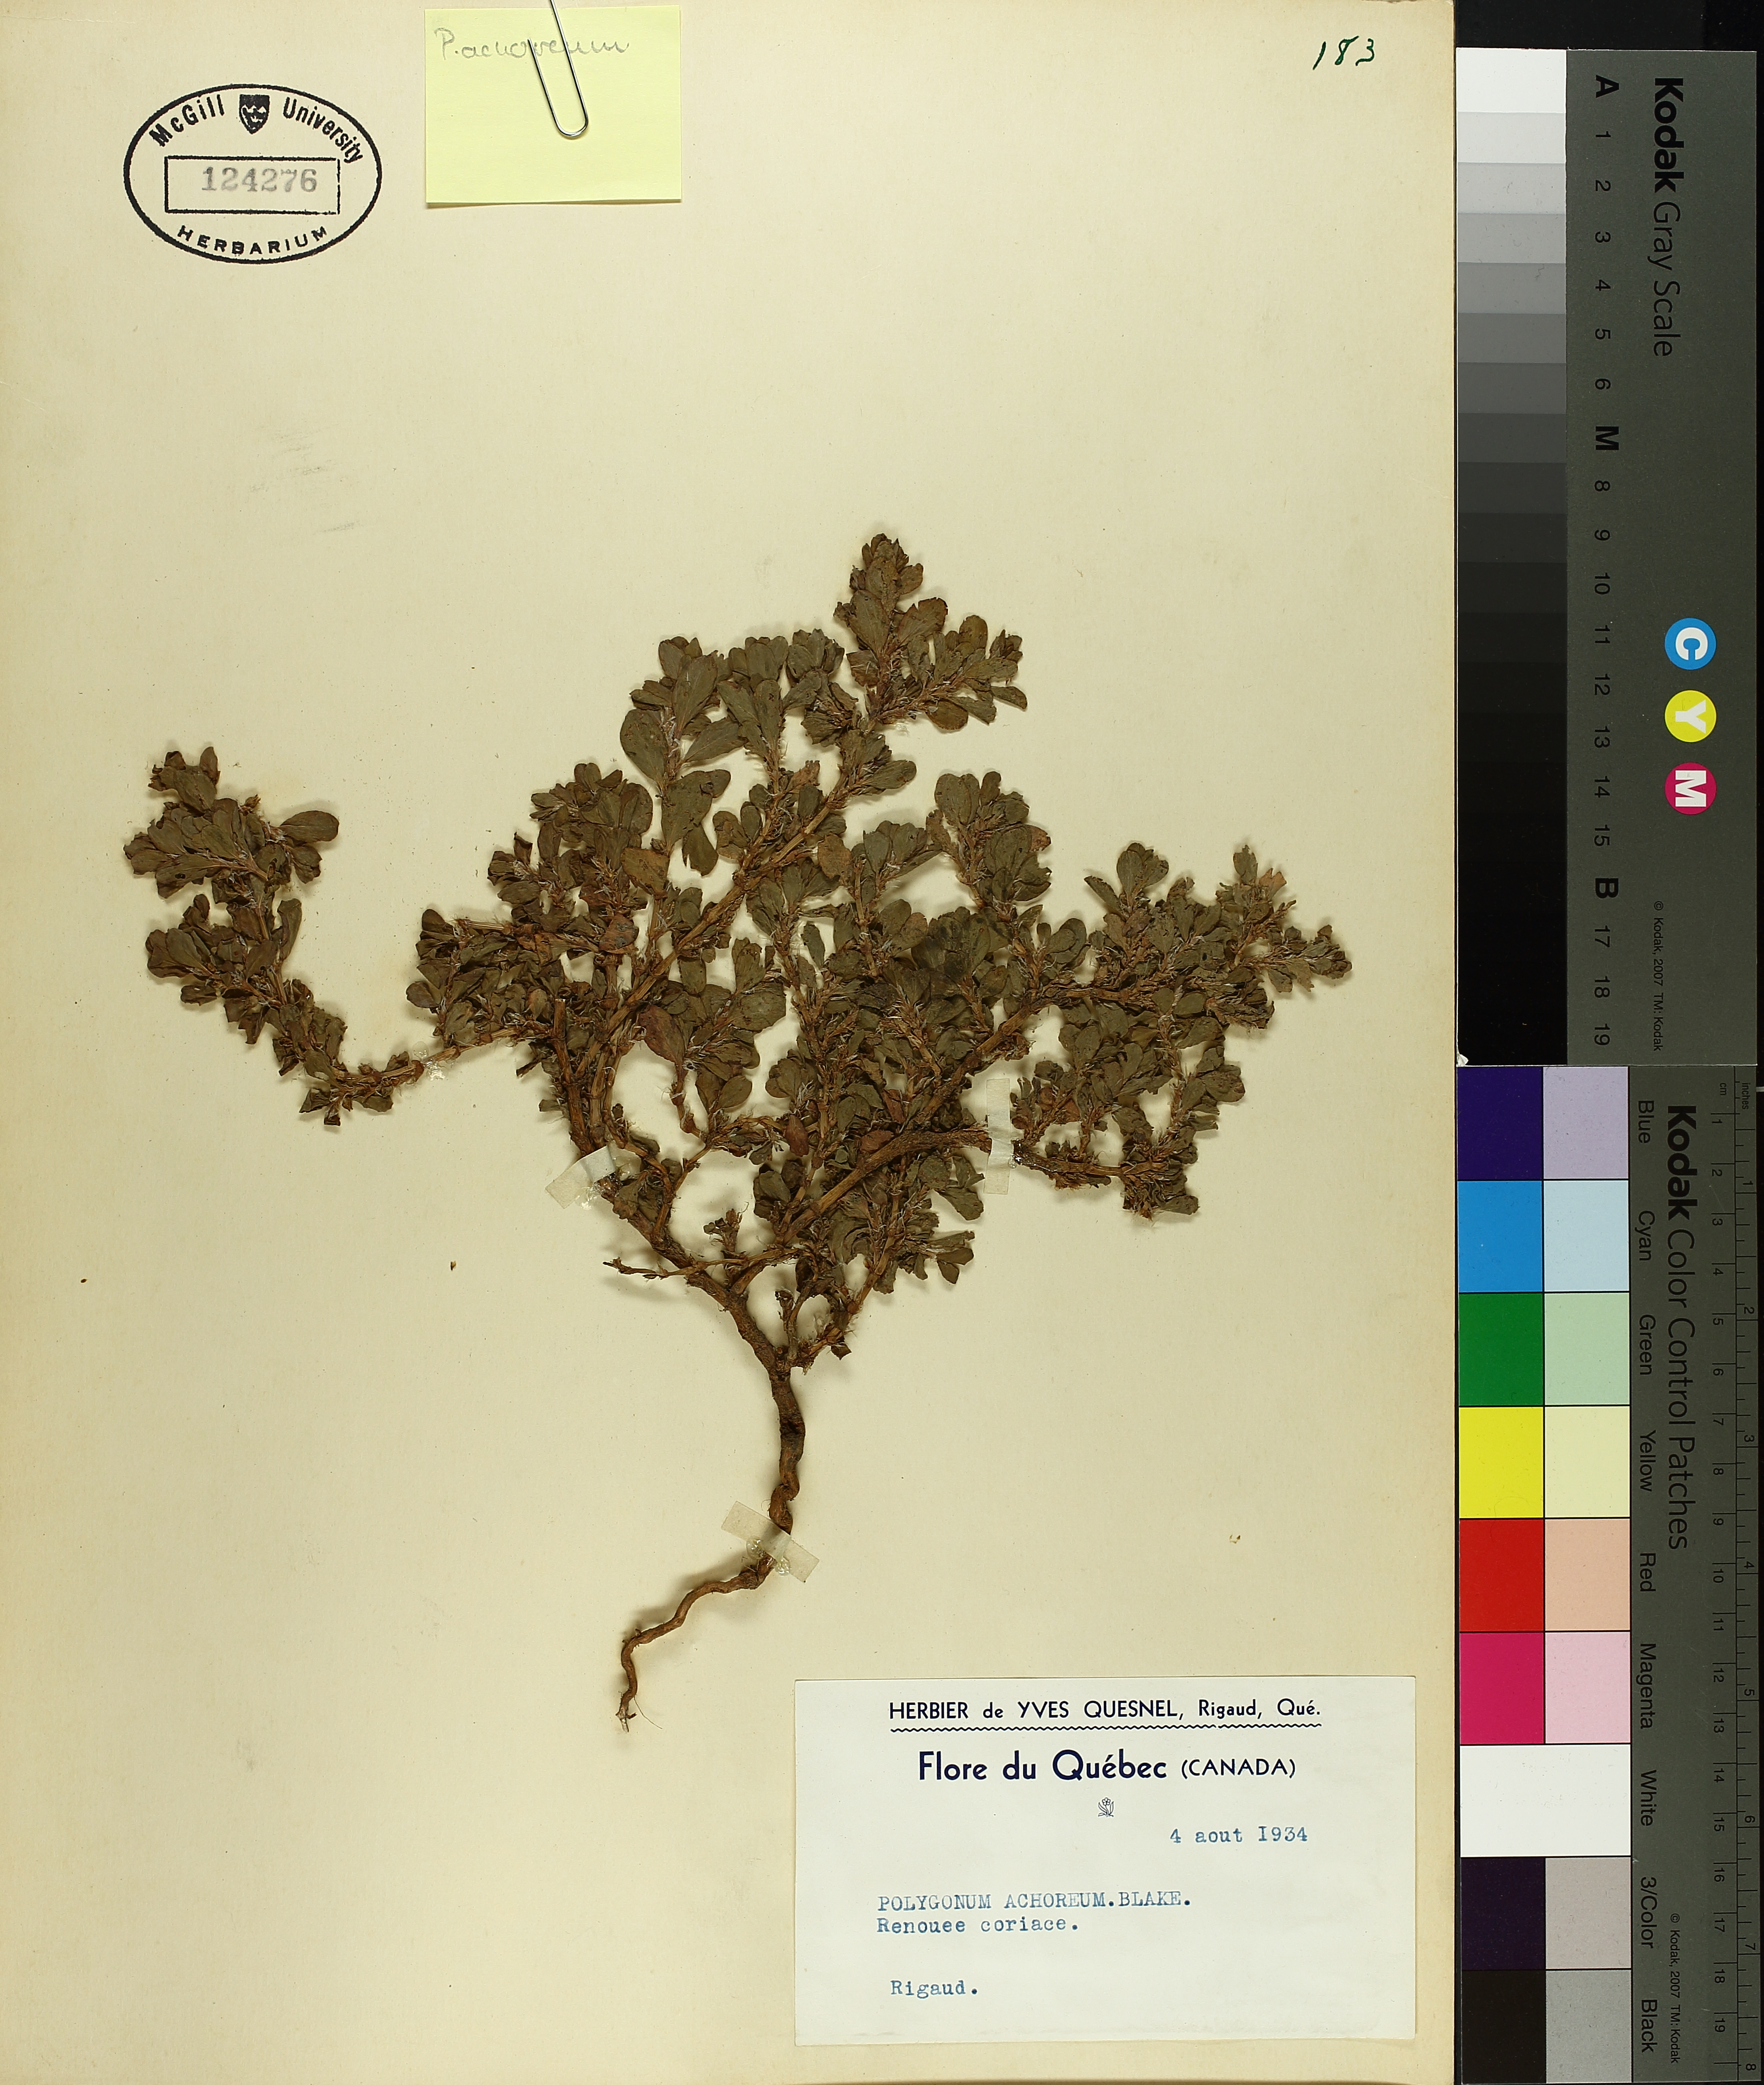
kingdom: Plantae
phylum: Tracheophyta
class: Magnoliopsida
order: Caryophyllales
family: Polygonaceae
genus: Polygonum
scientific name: Polygonum achoreum
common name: Striate knotweed
